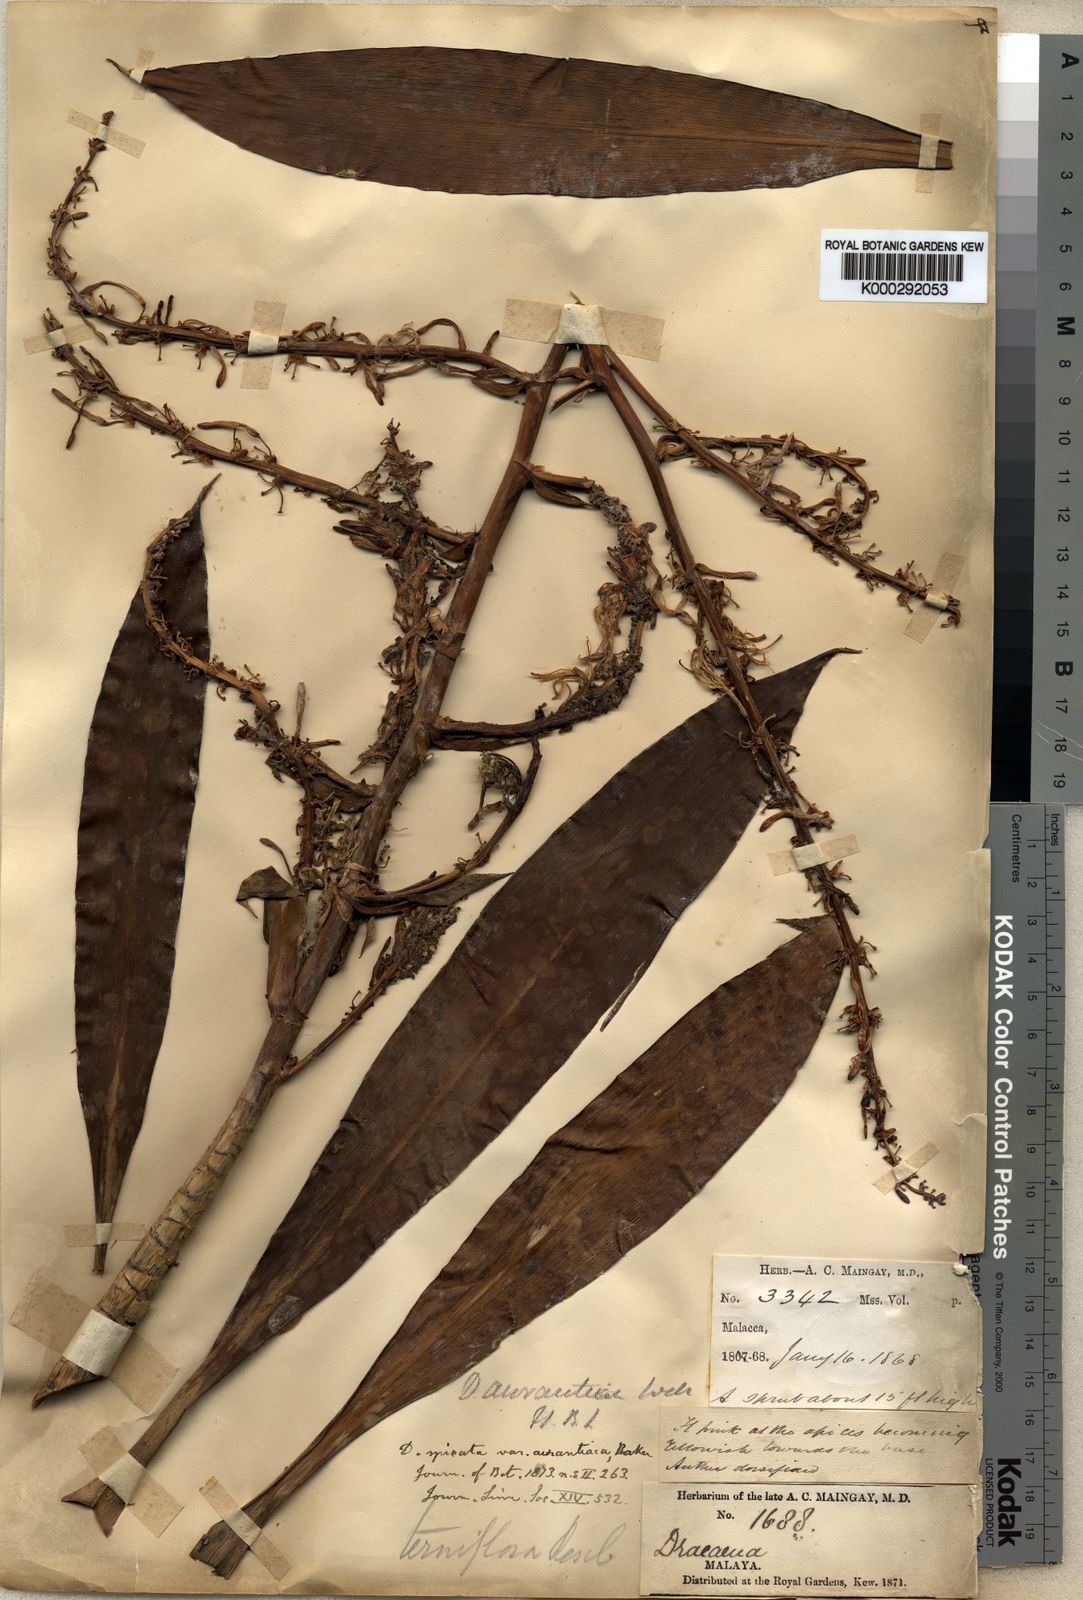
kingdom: Plantae
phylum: Tracheophyta
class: Liliopsida
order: Asparagales
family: Asparagaceae
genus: Dracaena
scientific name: Dracaena
